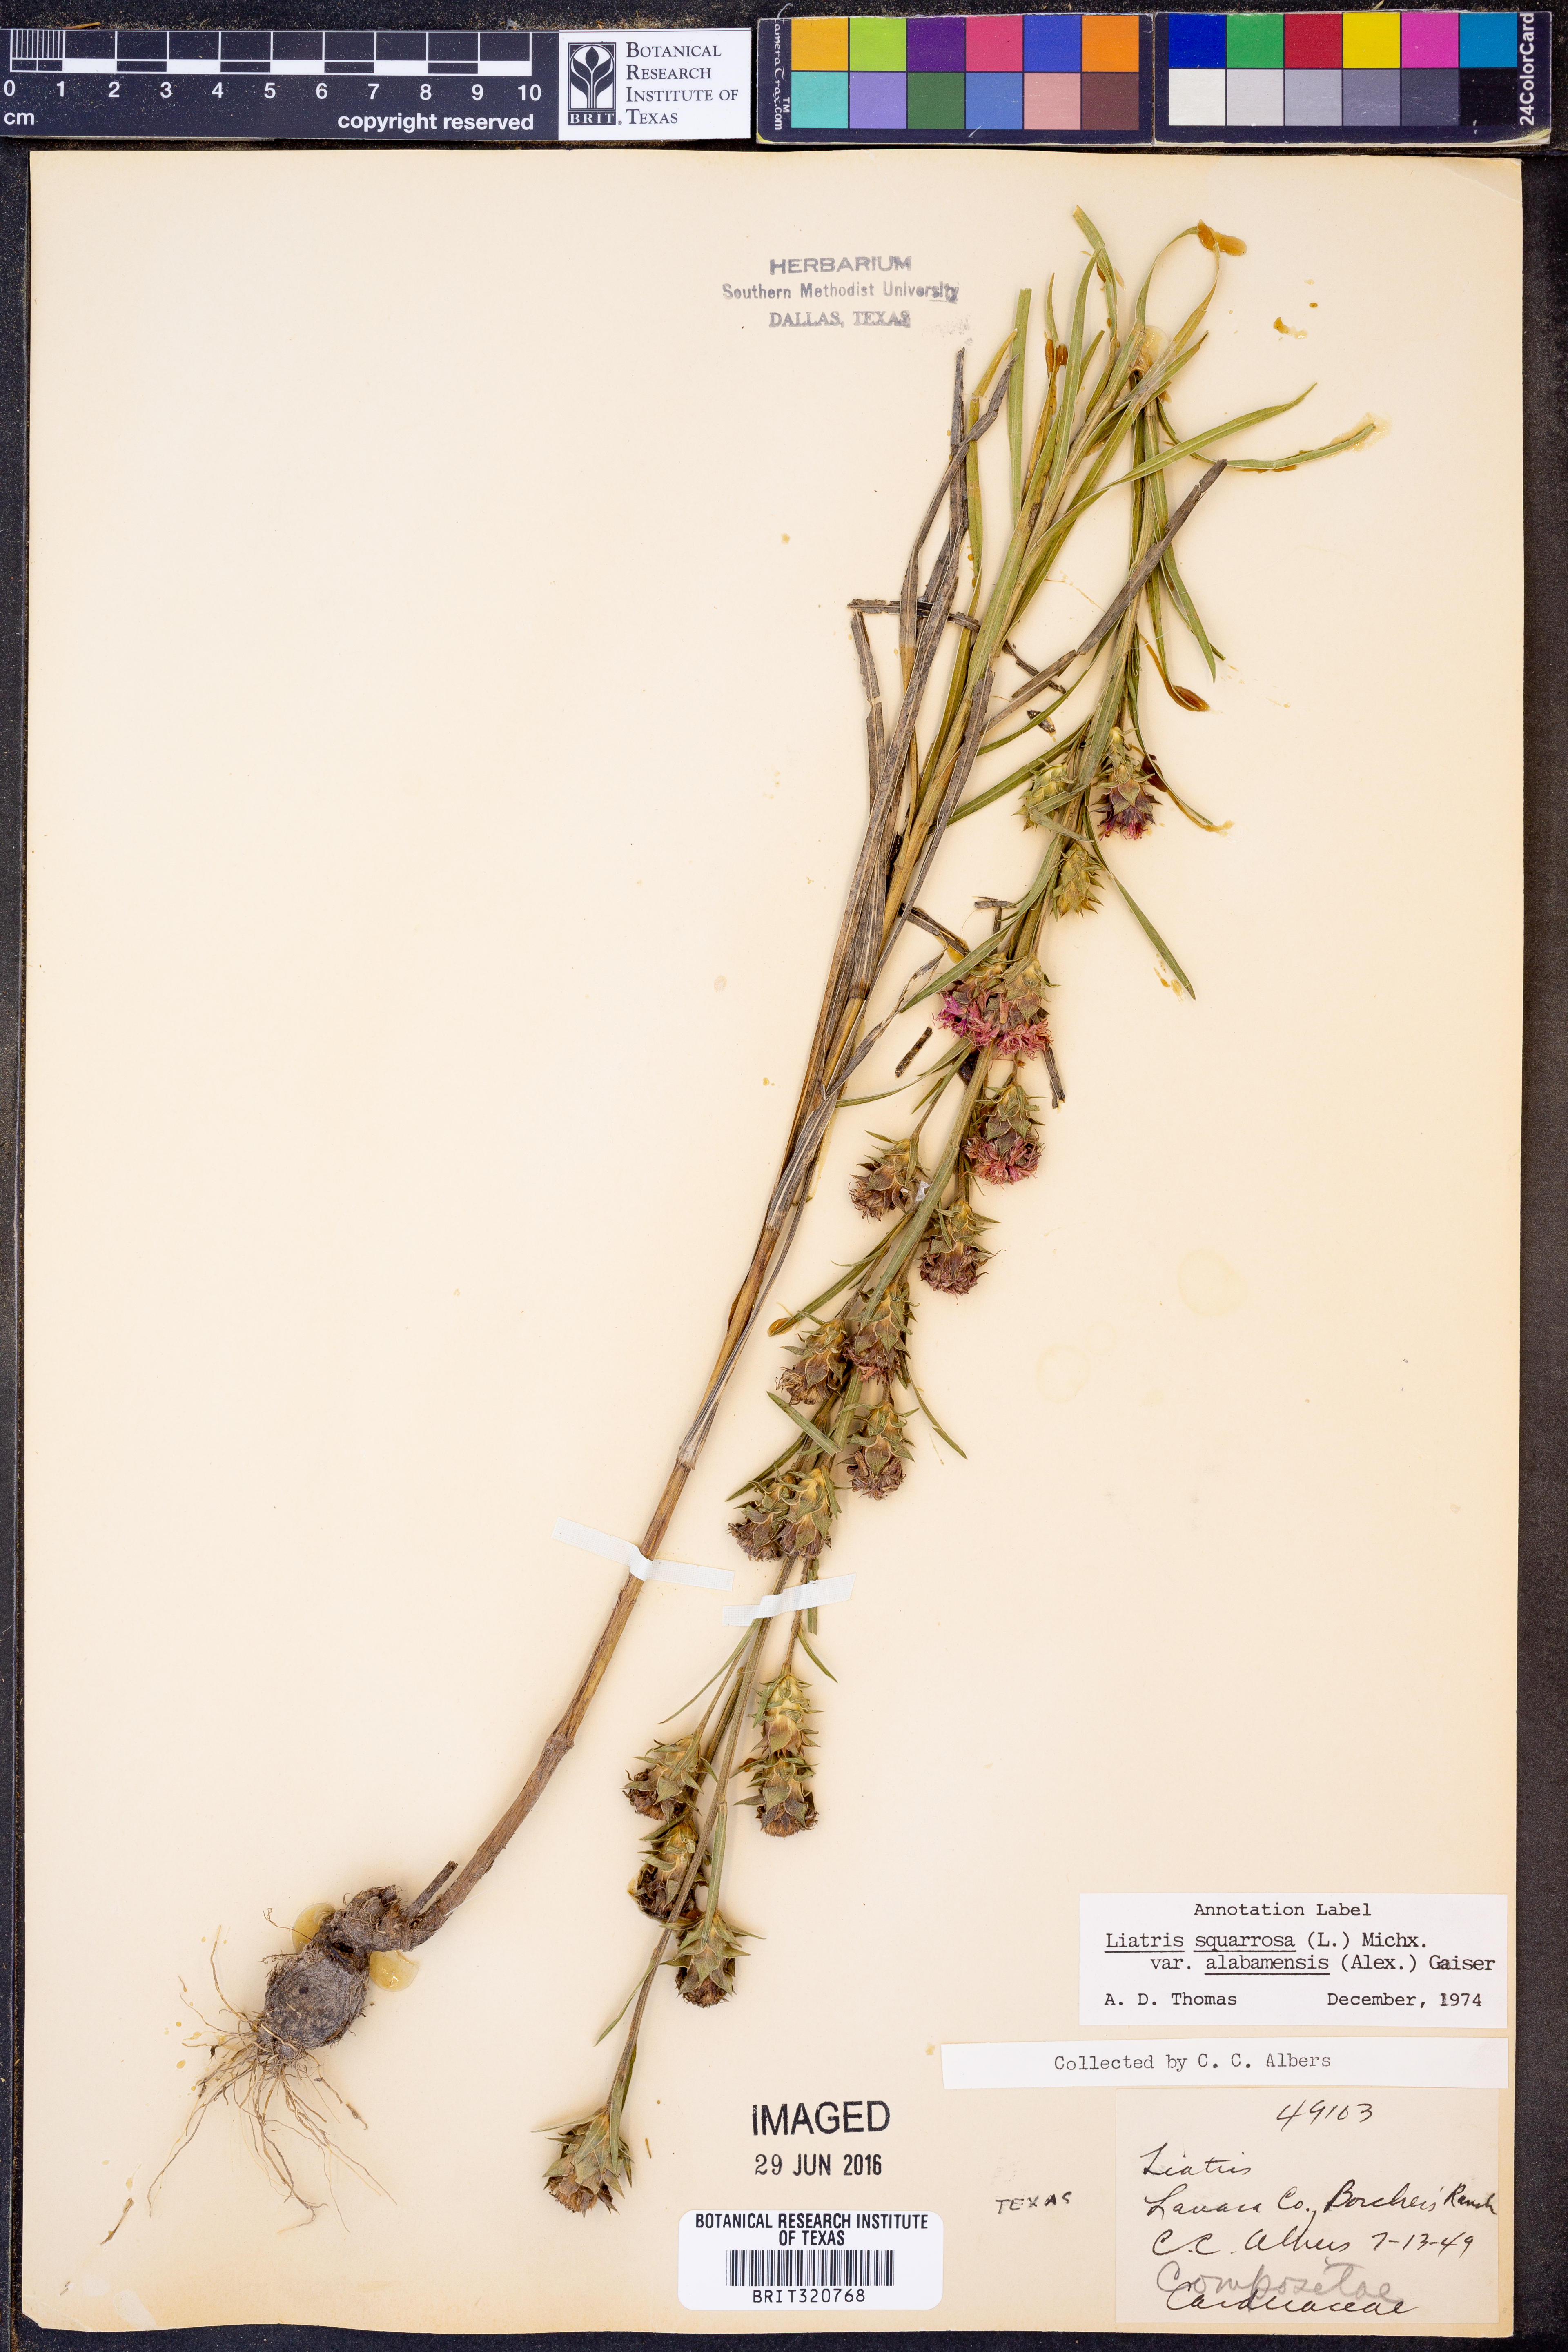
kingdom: Plantae
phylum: Tracheophyta
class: Magnoliopsida
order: Asterales
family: Asteraceae
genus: Liatris
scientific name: Liatris squarrosa
